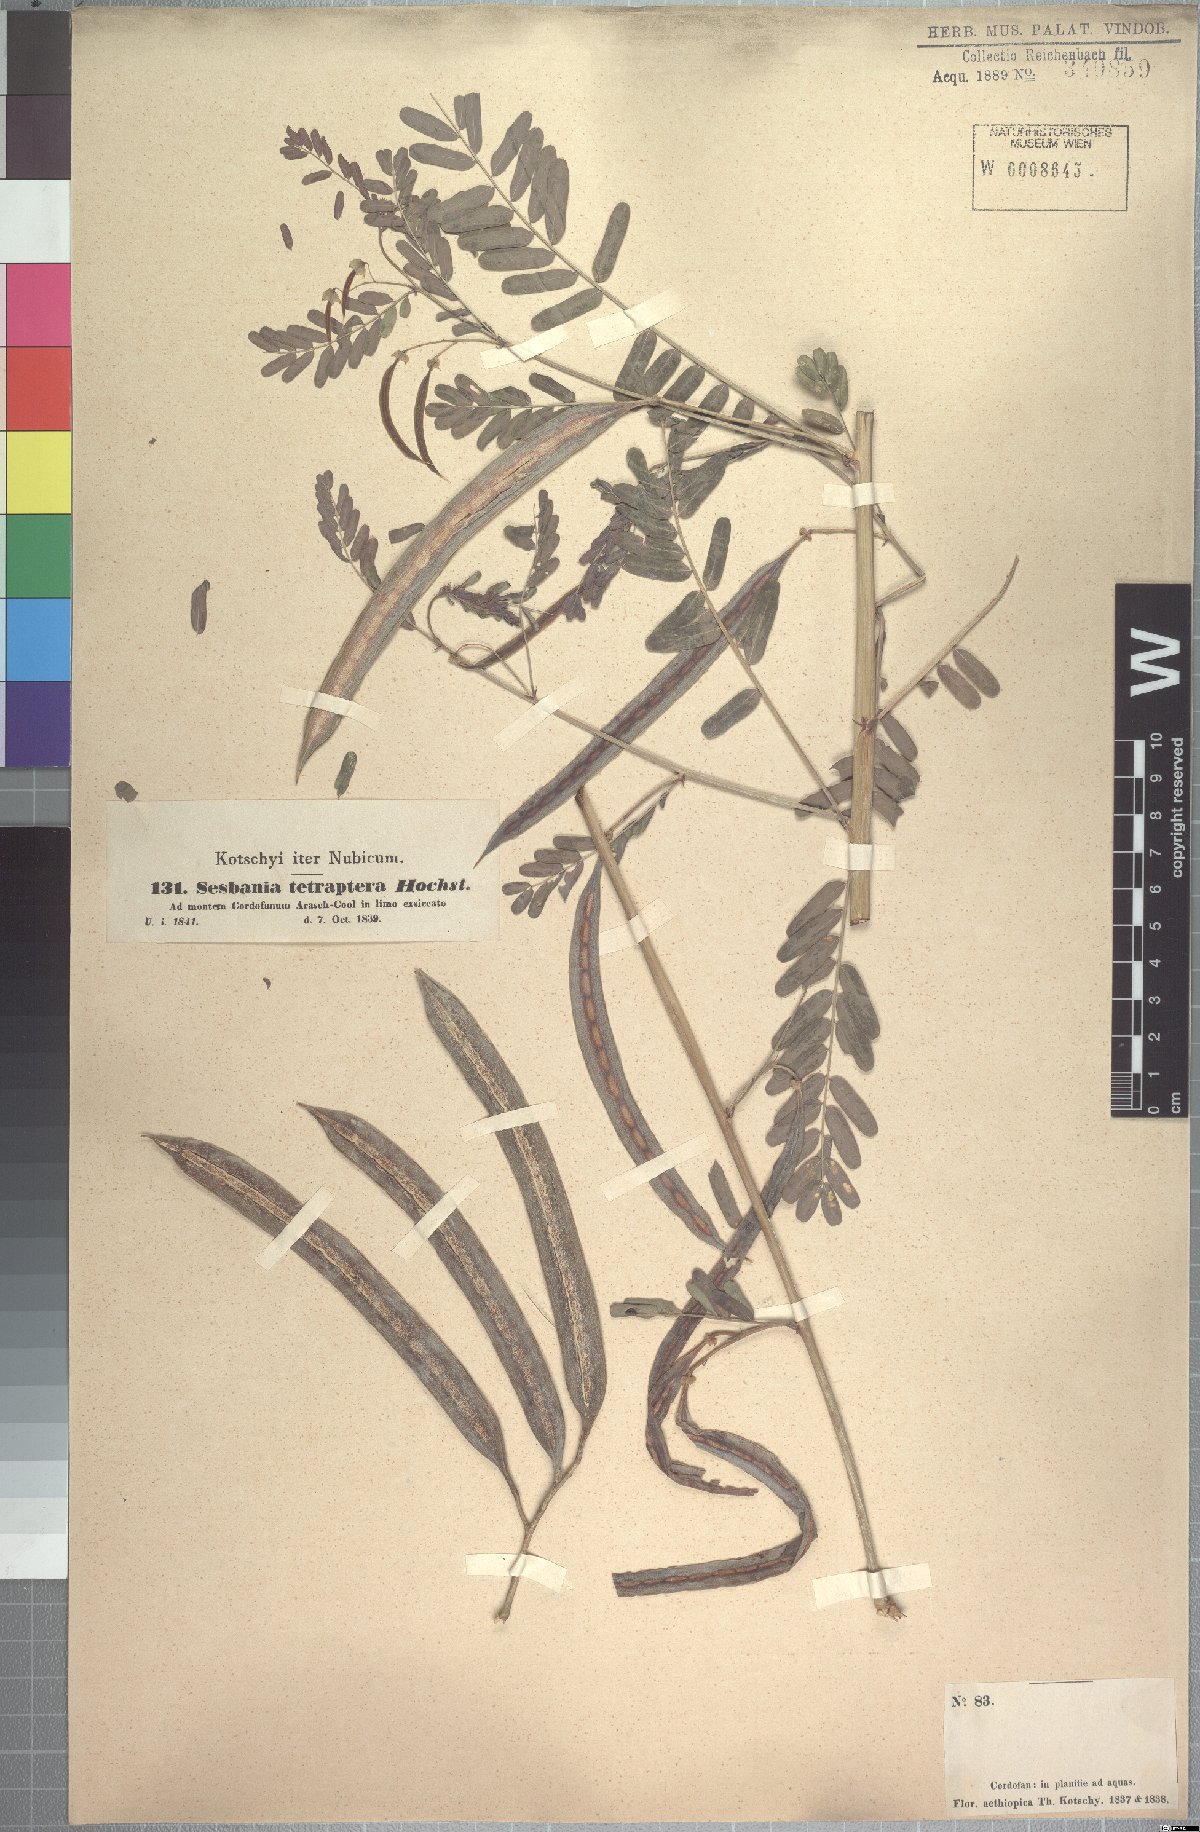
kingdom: Plantae
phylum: Tracheophyta
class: Magnoliopsida
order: Fabales
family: Fabaceae
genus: Sesbania
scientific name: Sesbania tetraptera
